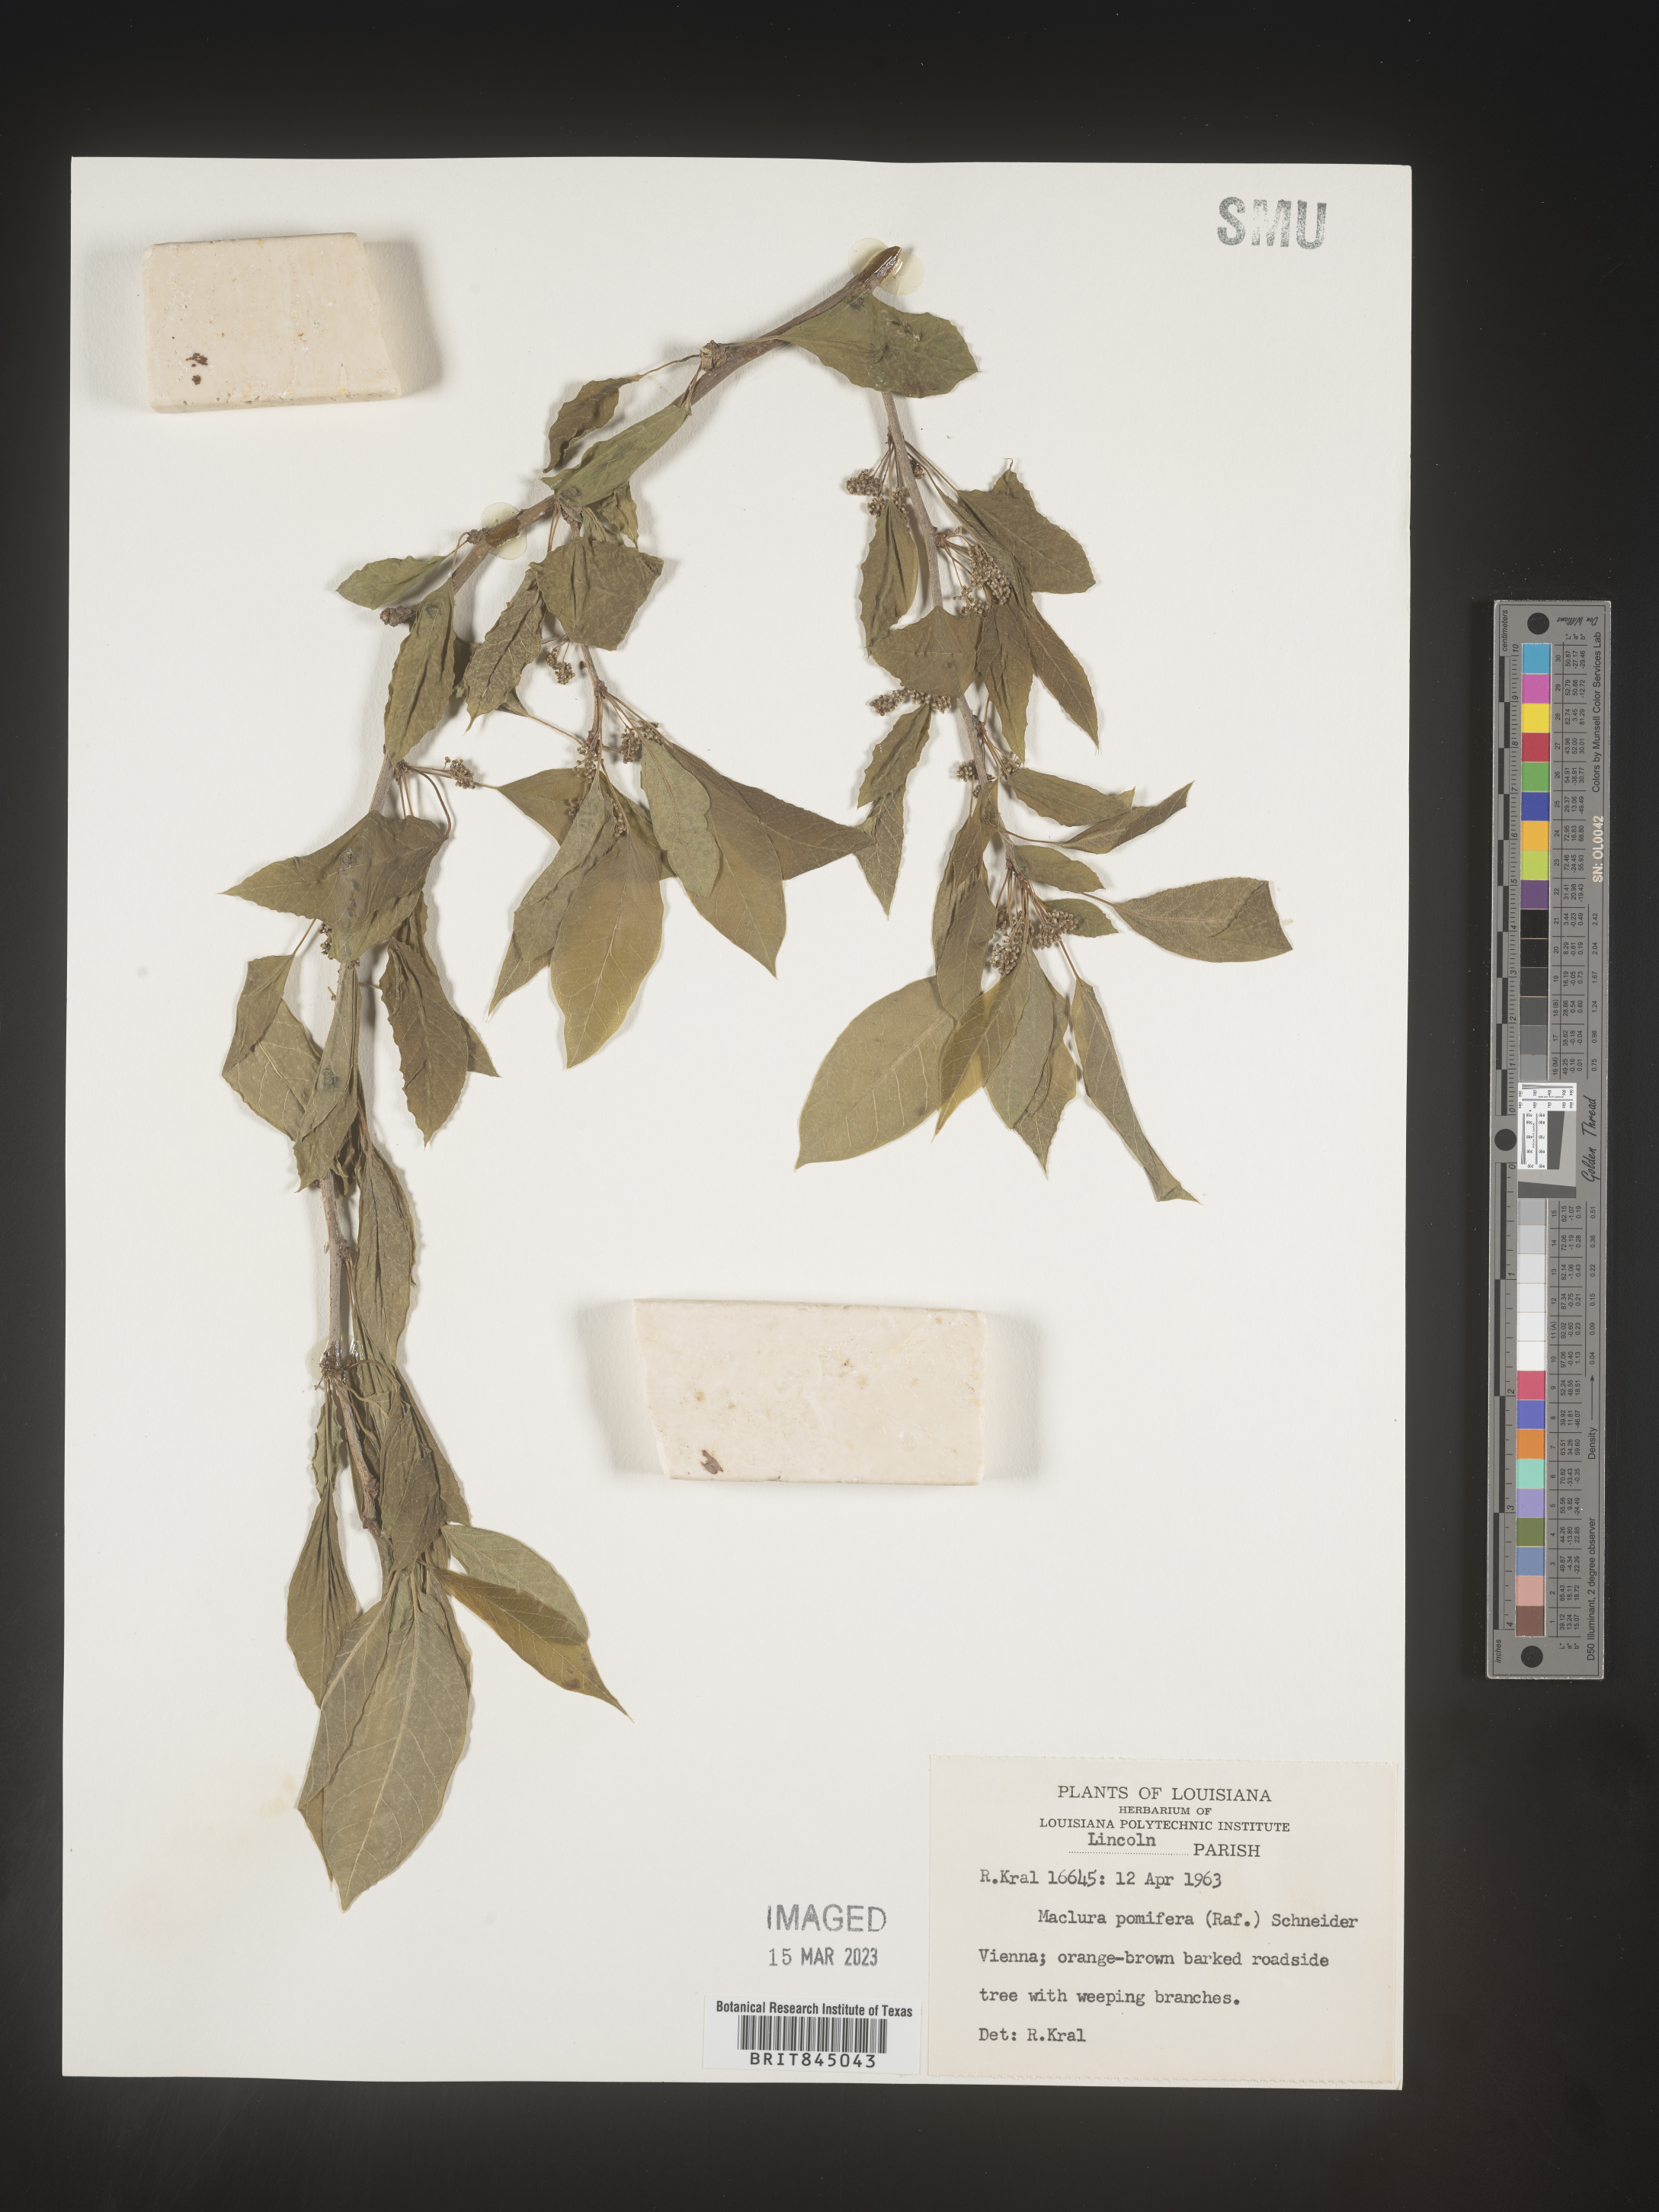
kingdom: Plantae
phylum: Tracheophyta
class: Magnoliopsida
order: Rosales
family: Moraceae
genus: Maclura
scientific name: Maclura pomifera
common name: Osage-orange
